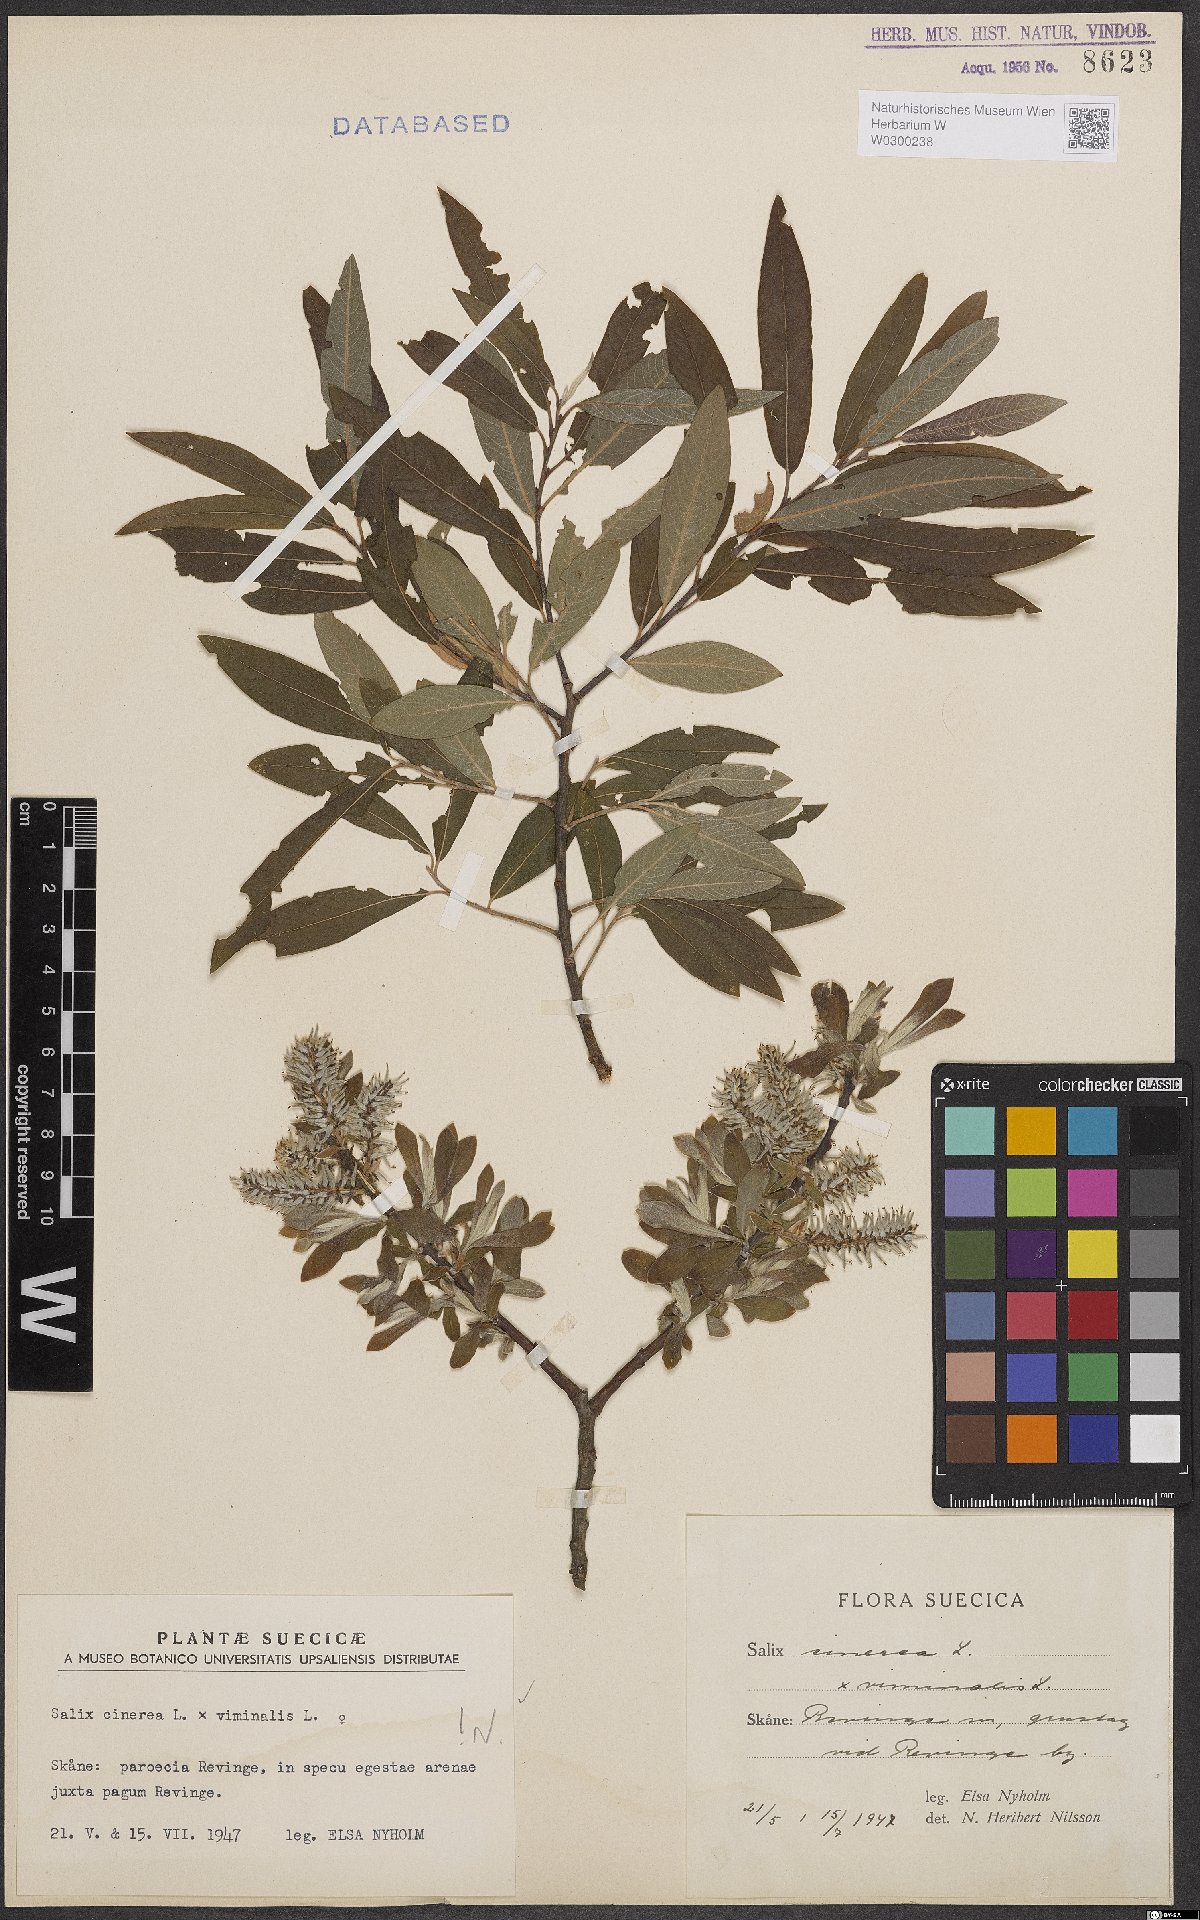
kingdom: Plantae
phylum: Tracheophyta
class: Magnoliopsida
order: Malpighiales
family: Salicaceae
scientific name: Salicaceae
